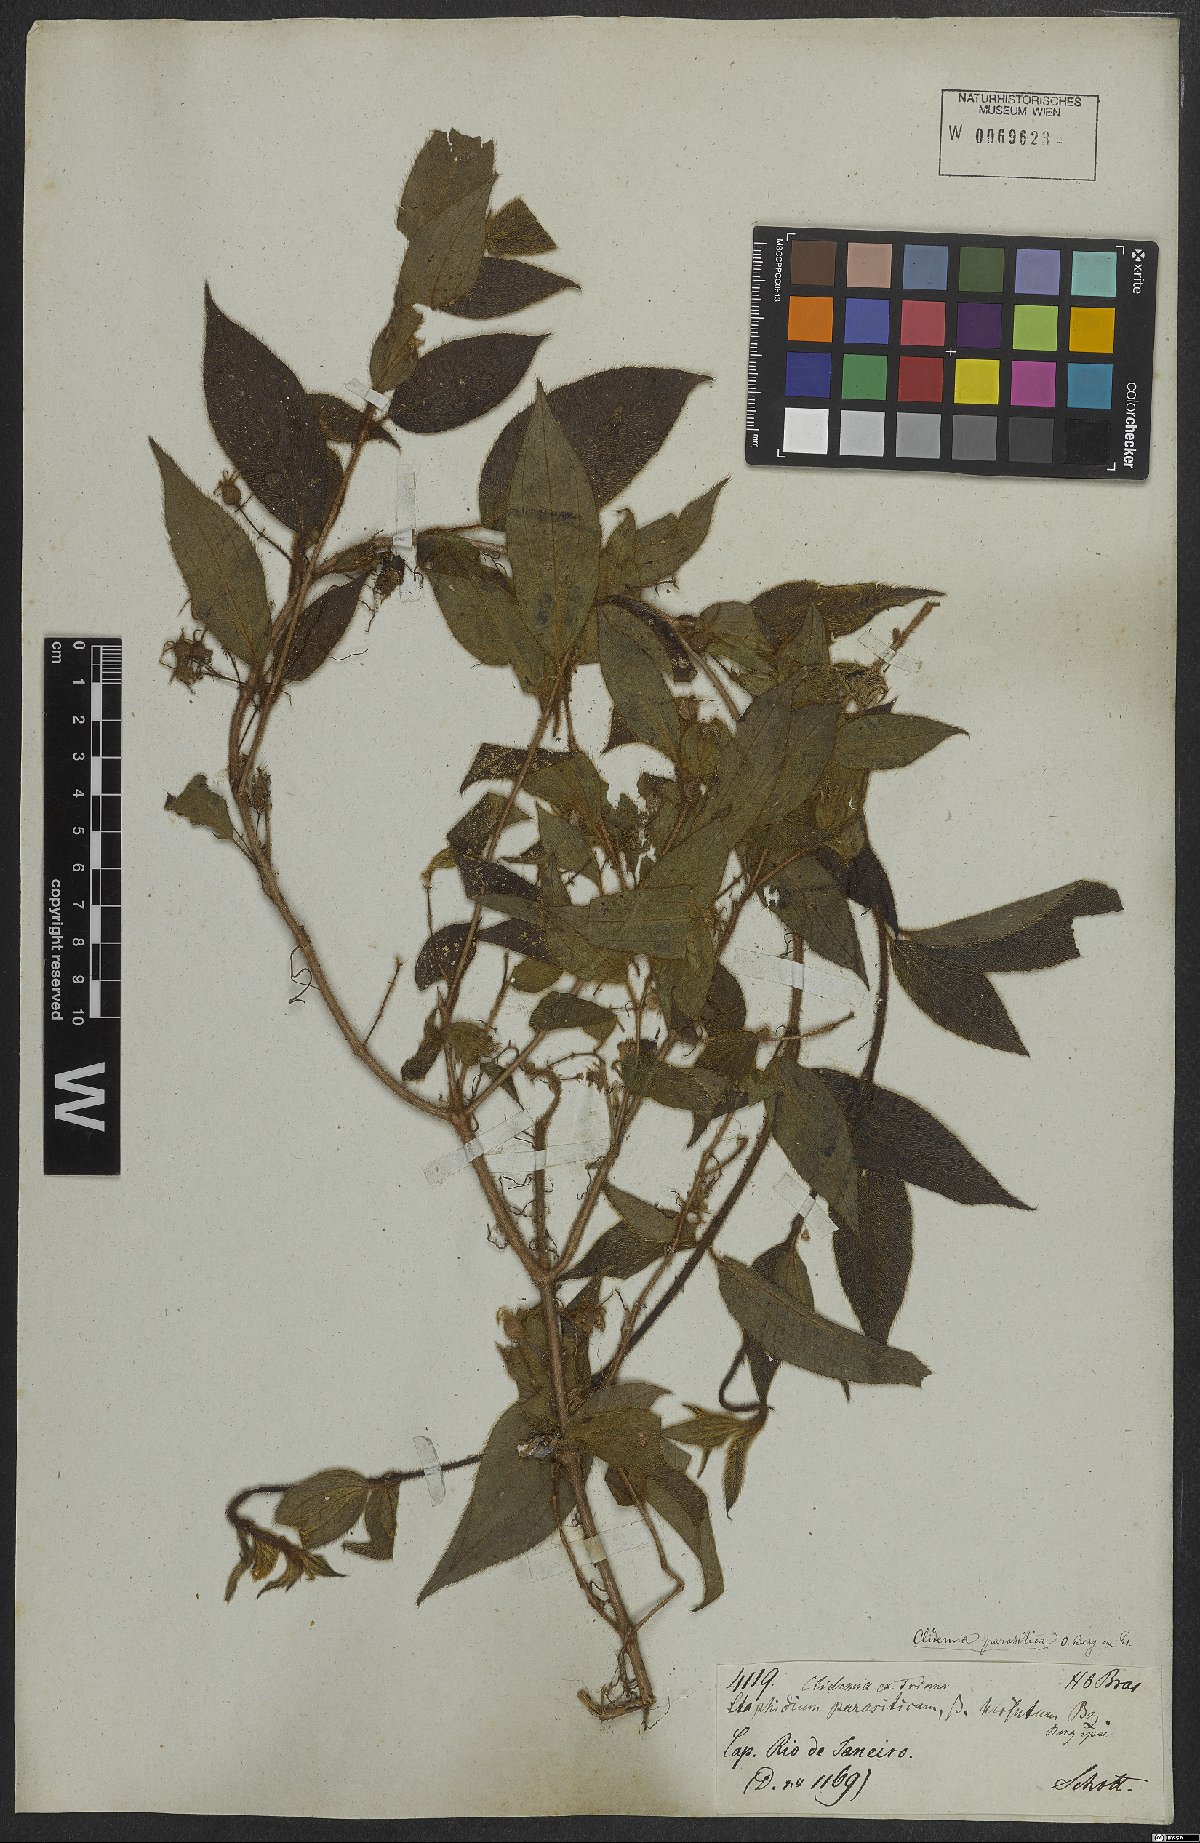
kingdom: Plantae
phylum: Tracheophyta
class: Magnoliopsida
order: Myrtales
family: Melastomataceae
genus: Miconia
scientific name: Miconia parasitica
